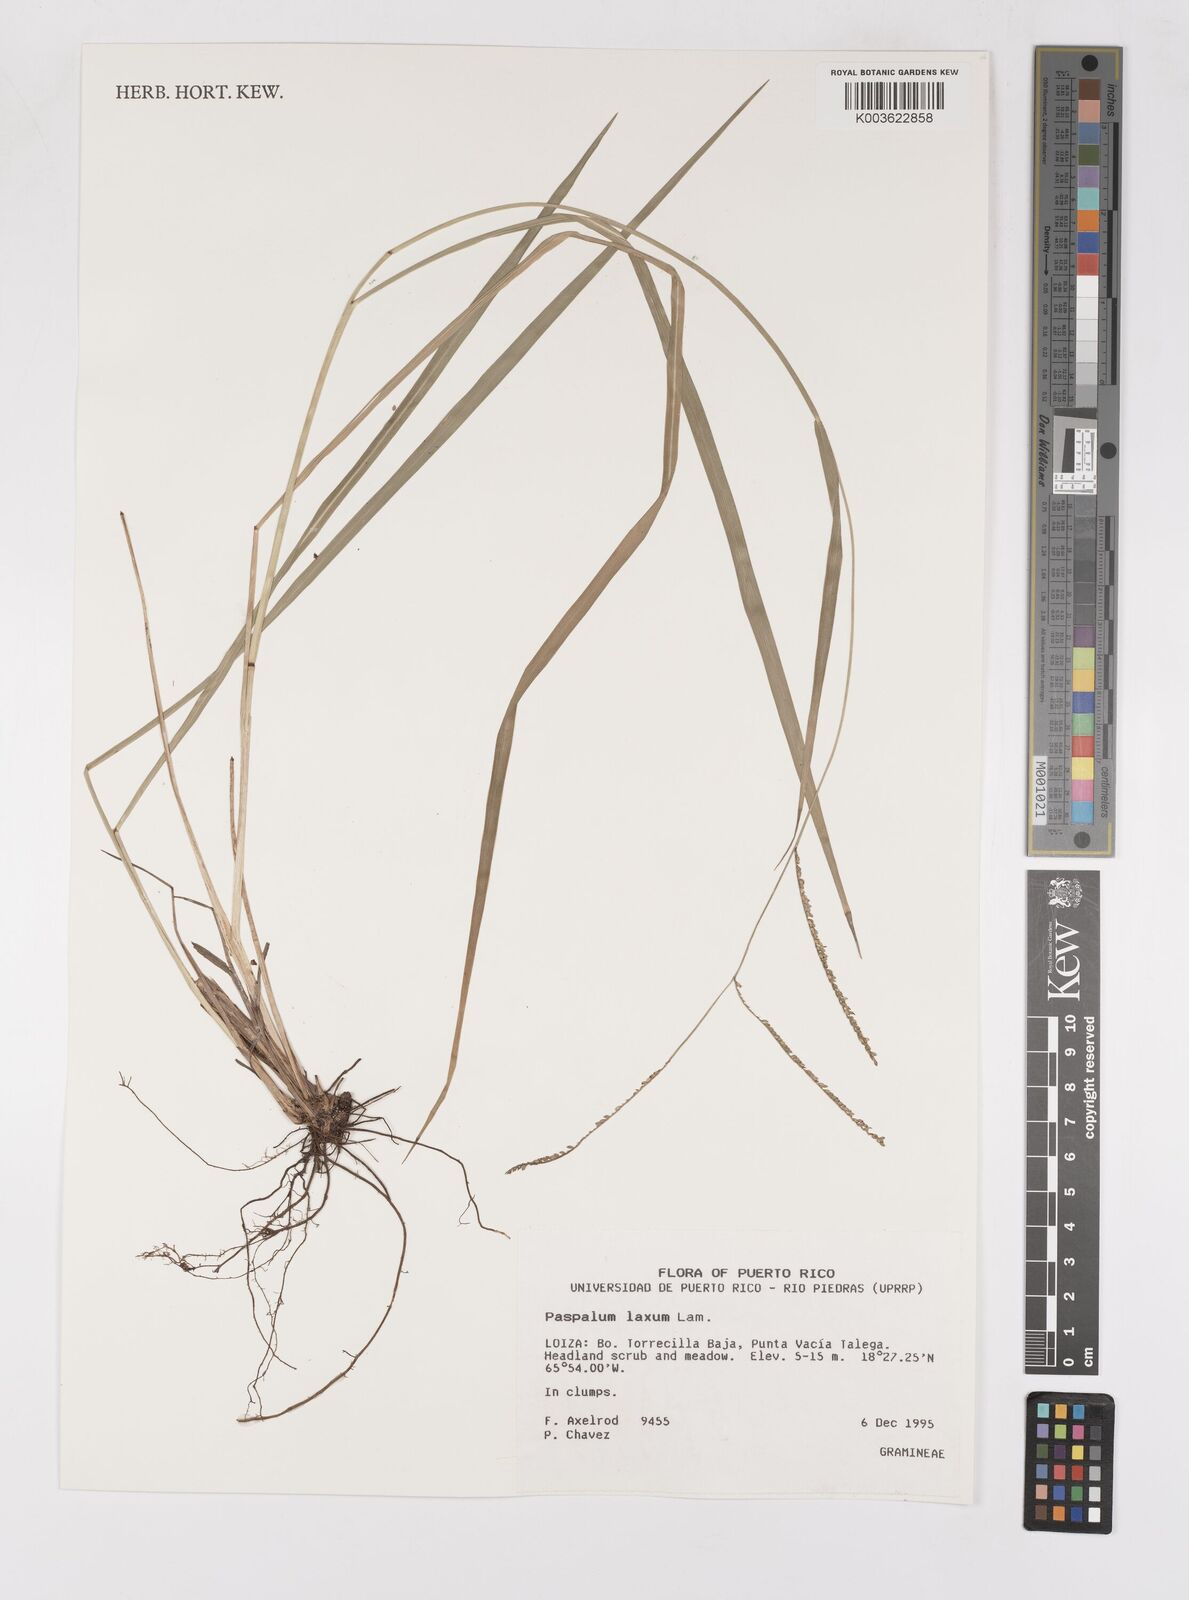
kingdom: Plantae
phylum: Tracheophyta
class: Liliopsida
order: Poales
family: Poaceae
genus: Paspalum
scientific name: Paspalum laxum
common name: Coconut paspalum
